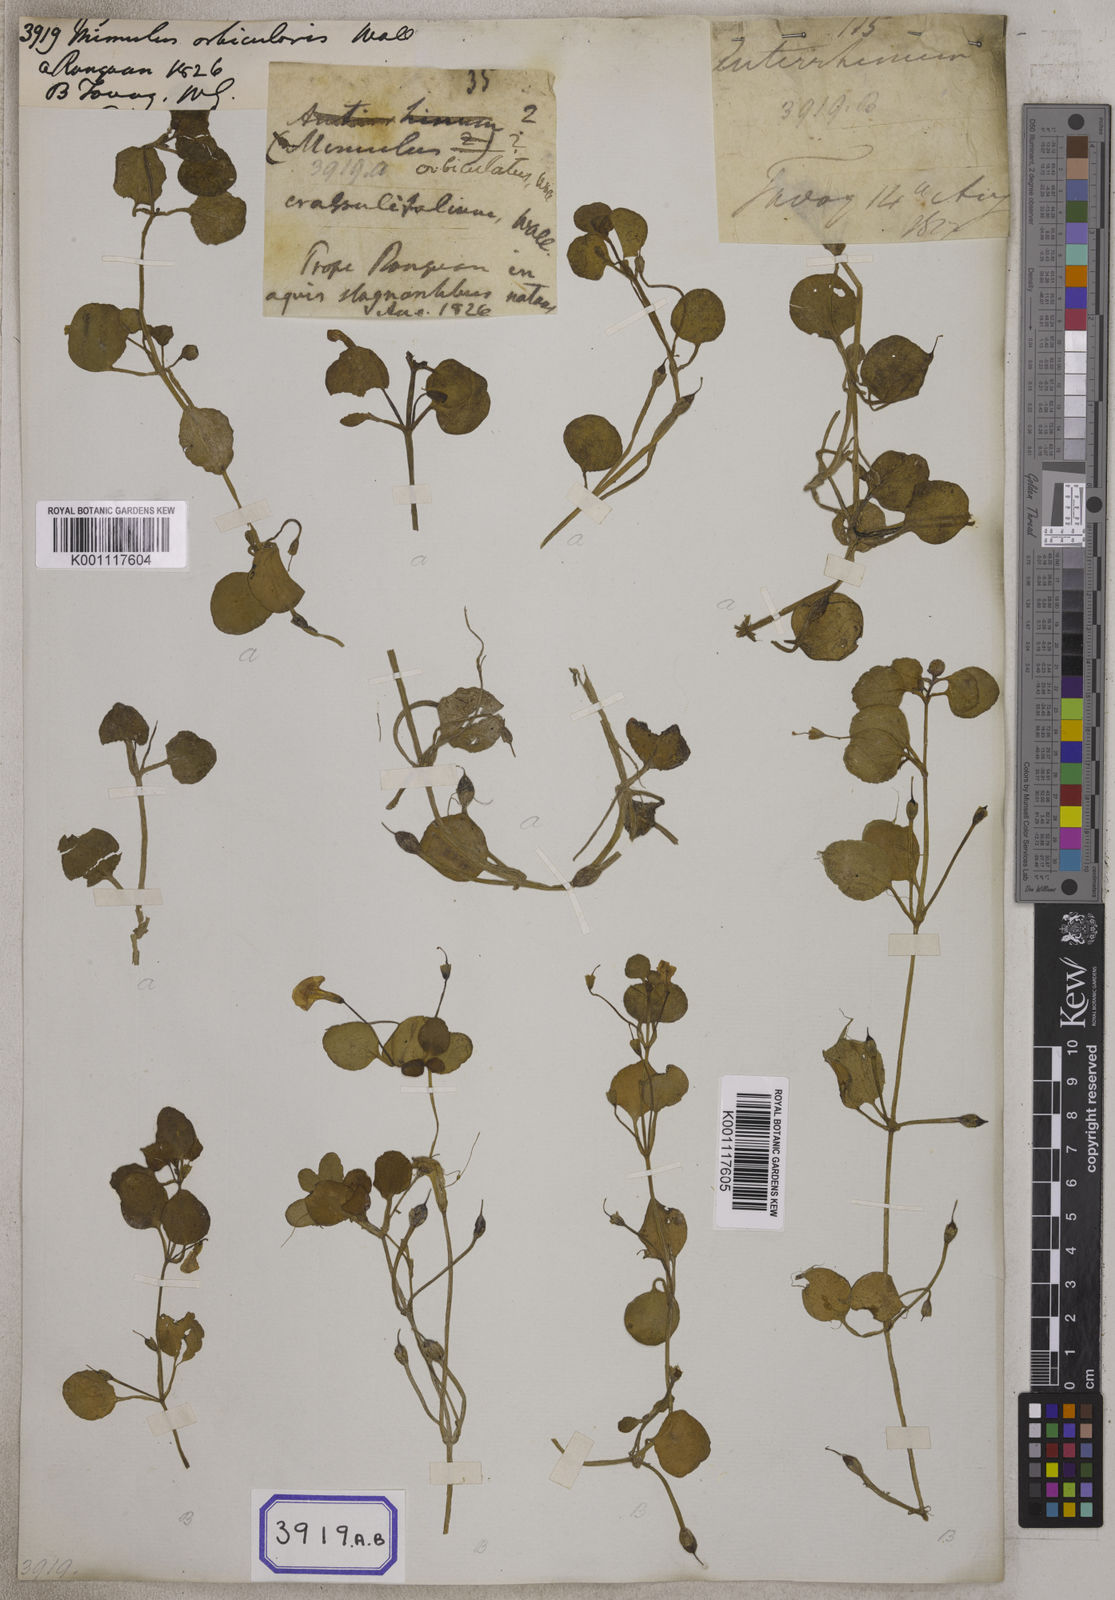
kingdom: Plantae
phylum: Tracheophyta
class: Magnoliopsida
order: Lamiales
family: Phrymaceae
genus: Mimulus
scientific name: Mimulus
